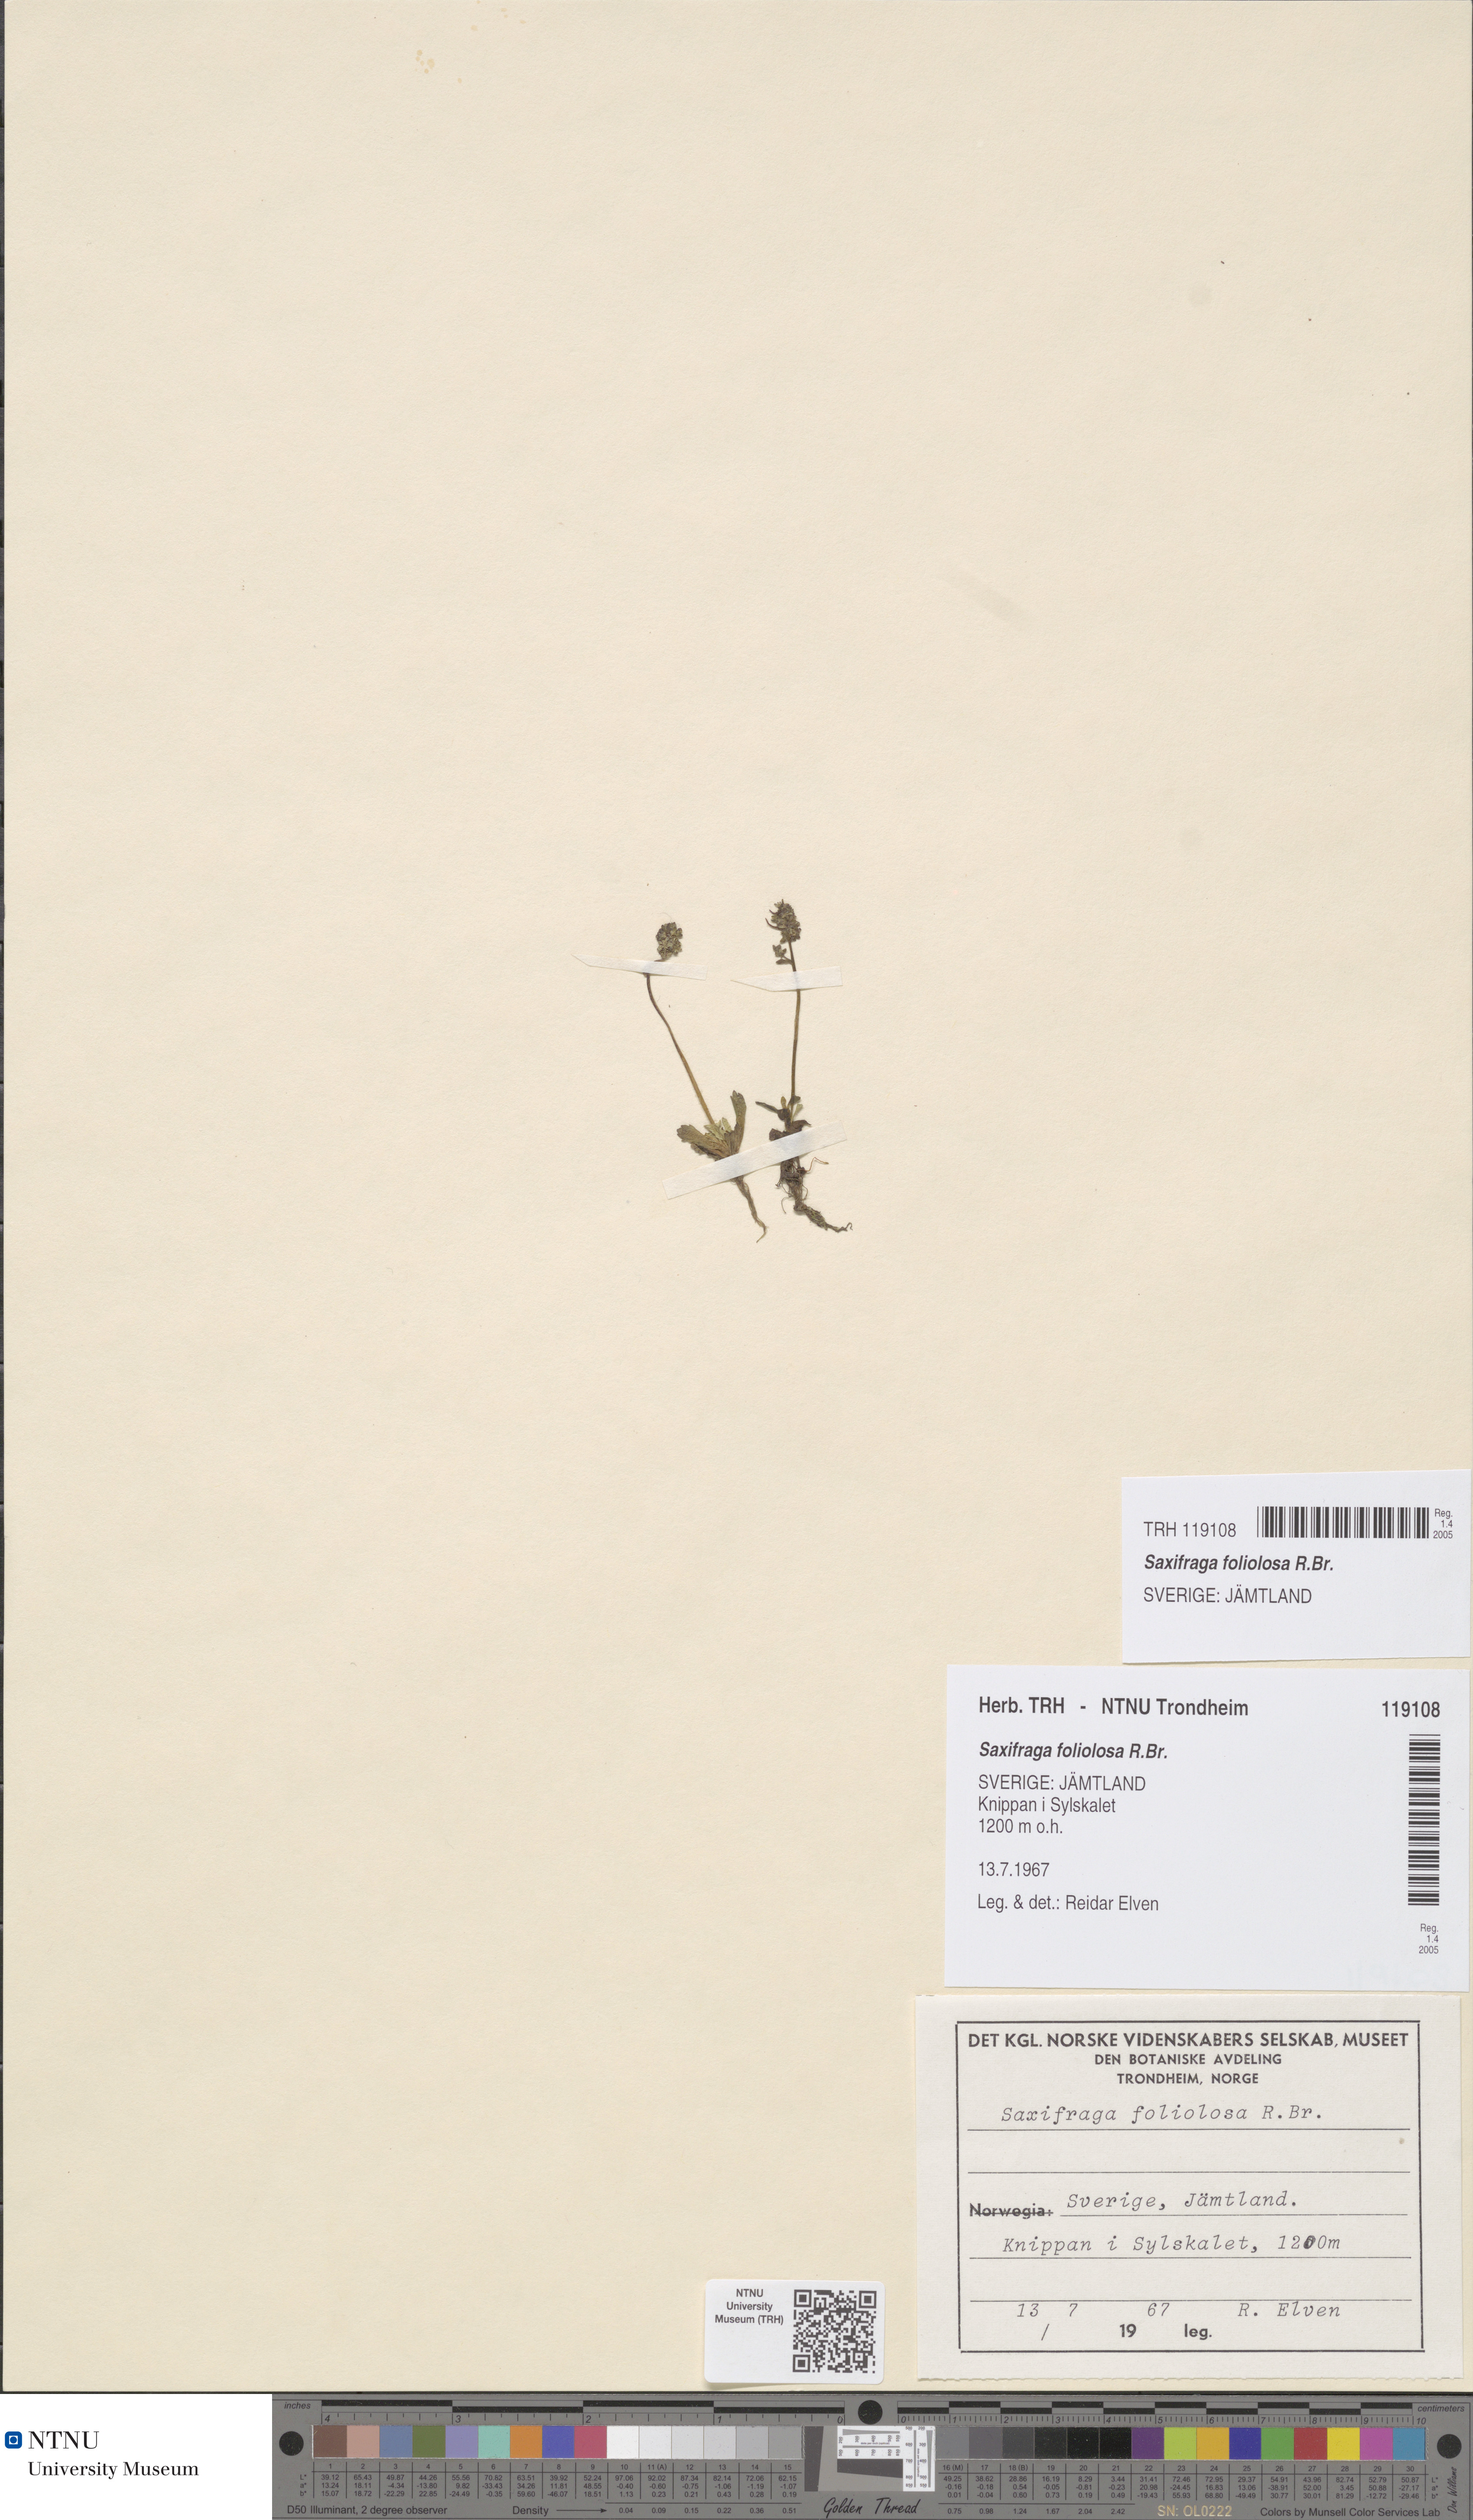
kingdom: Plantae
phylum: Tracheophyta
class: Magnoliopsida
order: Saxifragales
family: Saxifragaceae
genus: Micranthes
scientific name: Micranthes foliolosa
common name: Leafystem saxifrage
